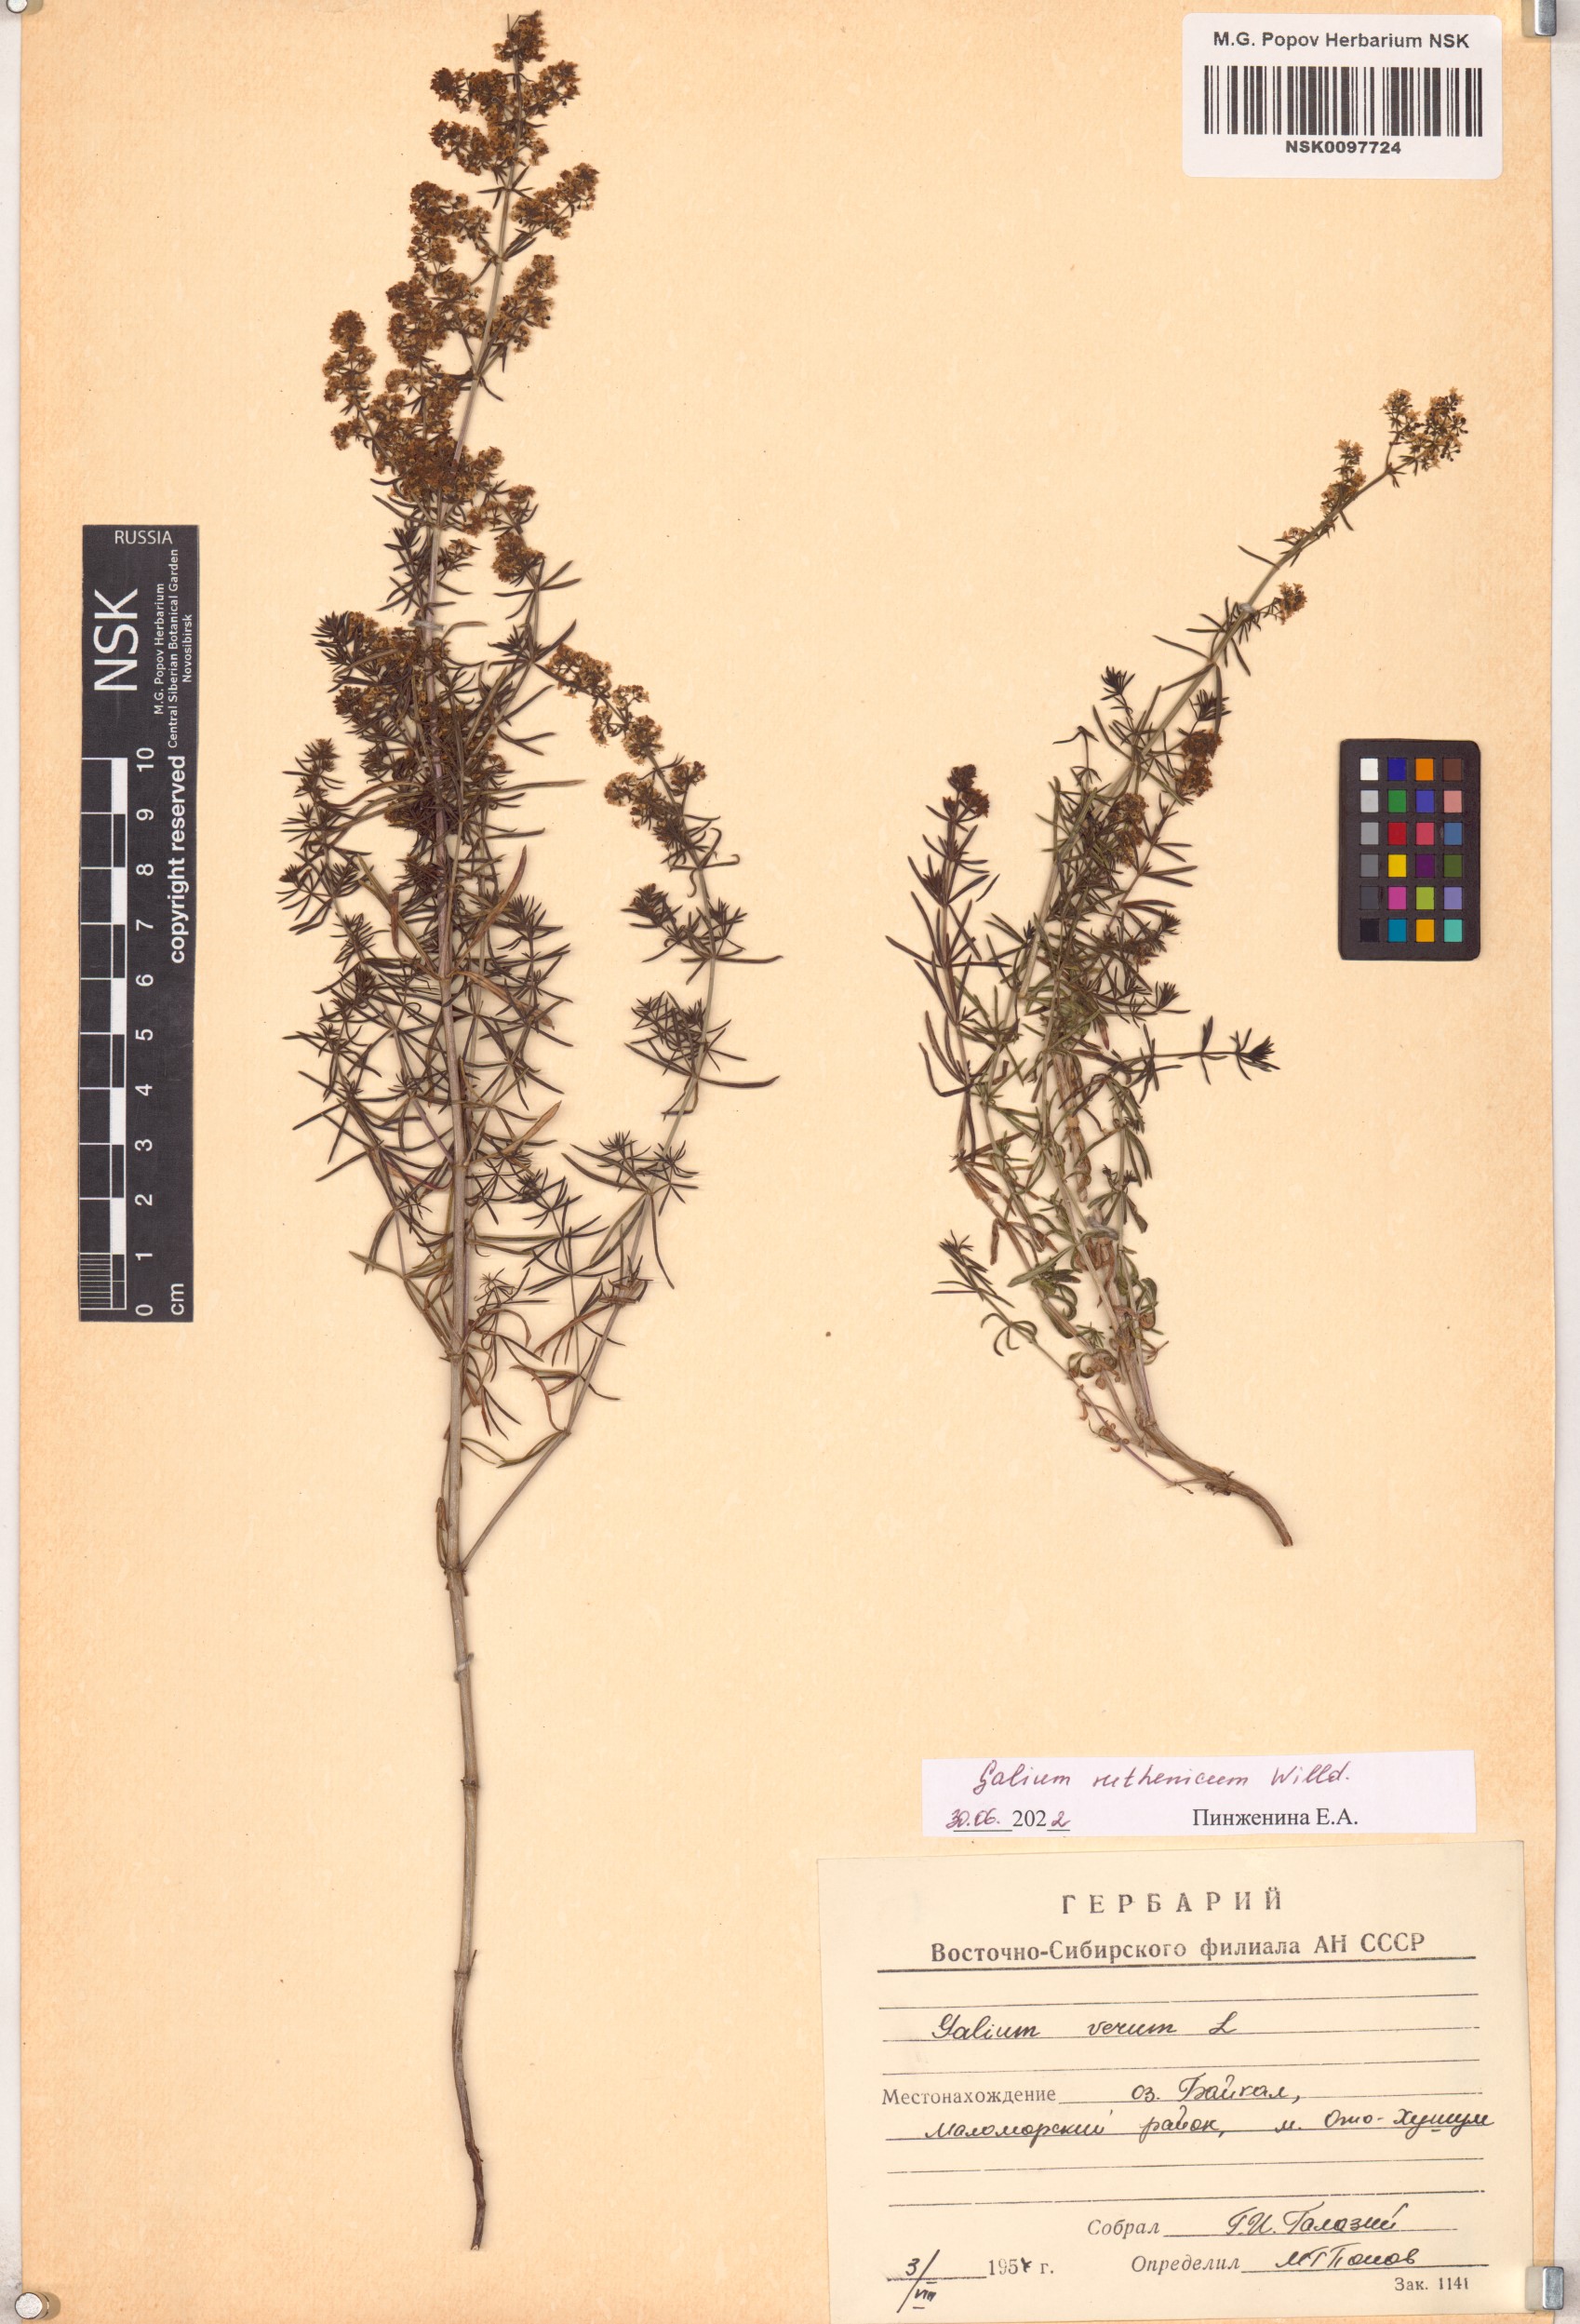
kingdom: Plantae
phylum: Tracheophyta
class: Magnoliopsida
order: Gentianales
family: Rubiaceae
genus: Galium
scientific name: Galium verum
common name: Lady's bedstraw
